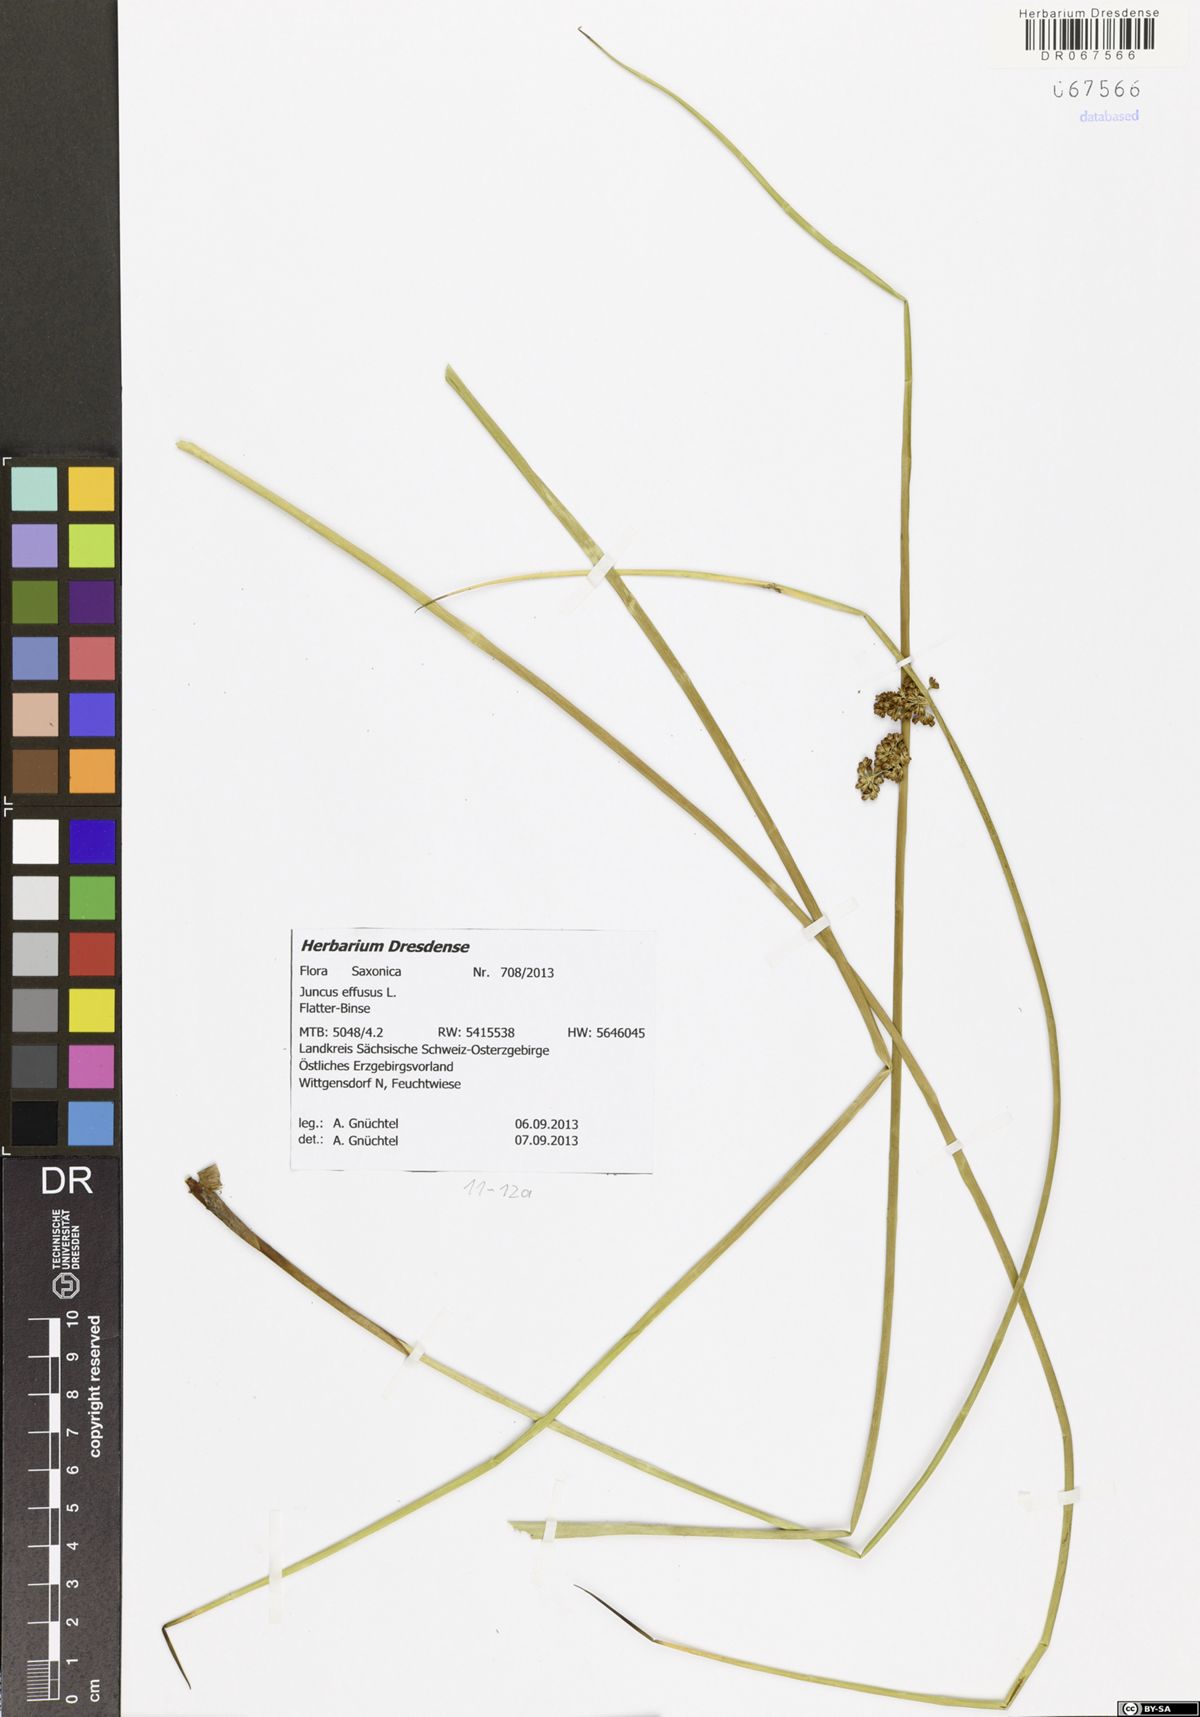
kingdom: Plantae
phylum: Tracheophyta
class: Liliopsida
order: Poales
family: Juncaceae
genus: Juncus
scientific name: Juncus effusus
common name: Soft rush
